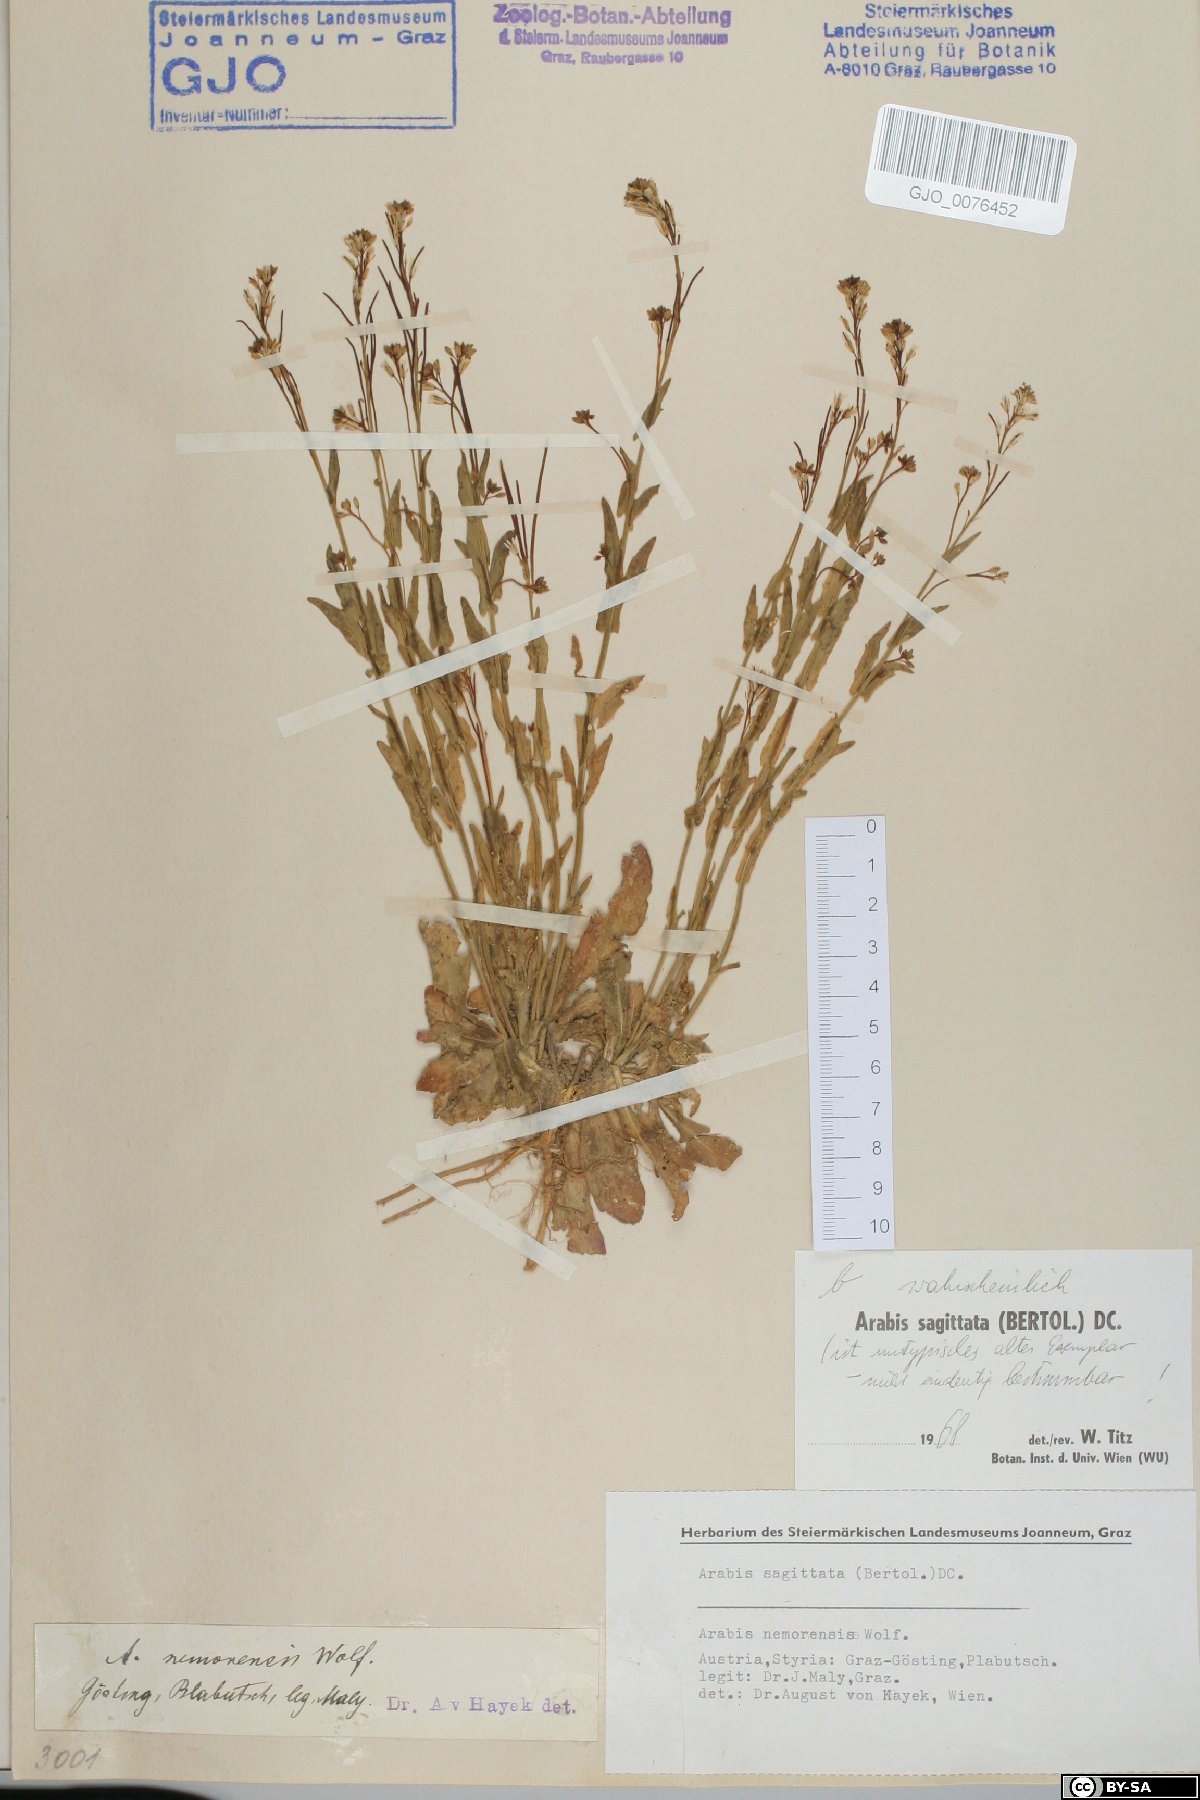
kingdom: Plantae
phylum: Tracheophyta
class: Magnoliopsida
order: Brassicales
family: Brassicaceae
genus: Arabis
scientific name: Arabis sagittata
